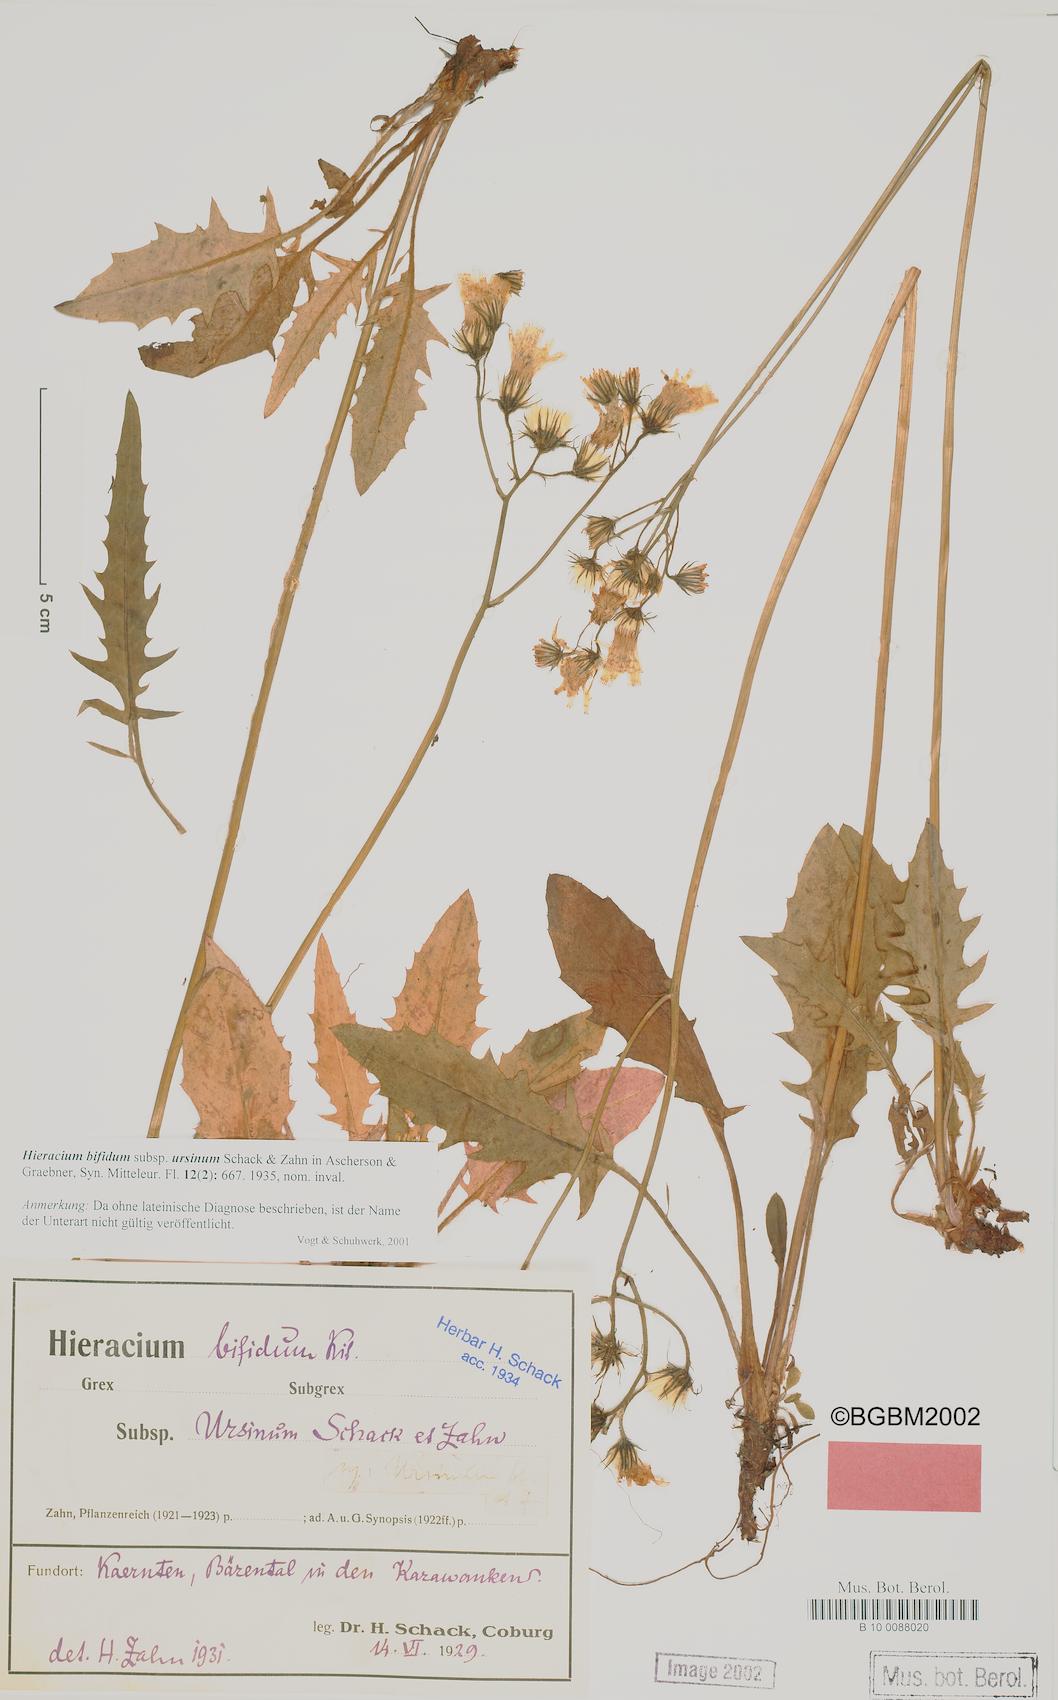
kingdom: Plantae
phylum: Tracheophyta
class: Magnoliopsida
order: Asterales
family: Asteraceae
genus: Hieracium
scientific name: Hieracium bifidum
